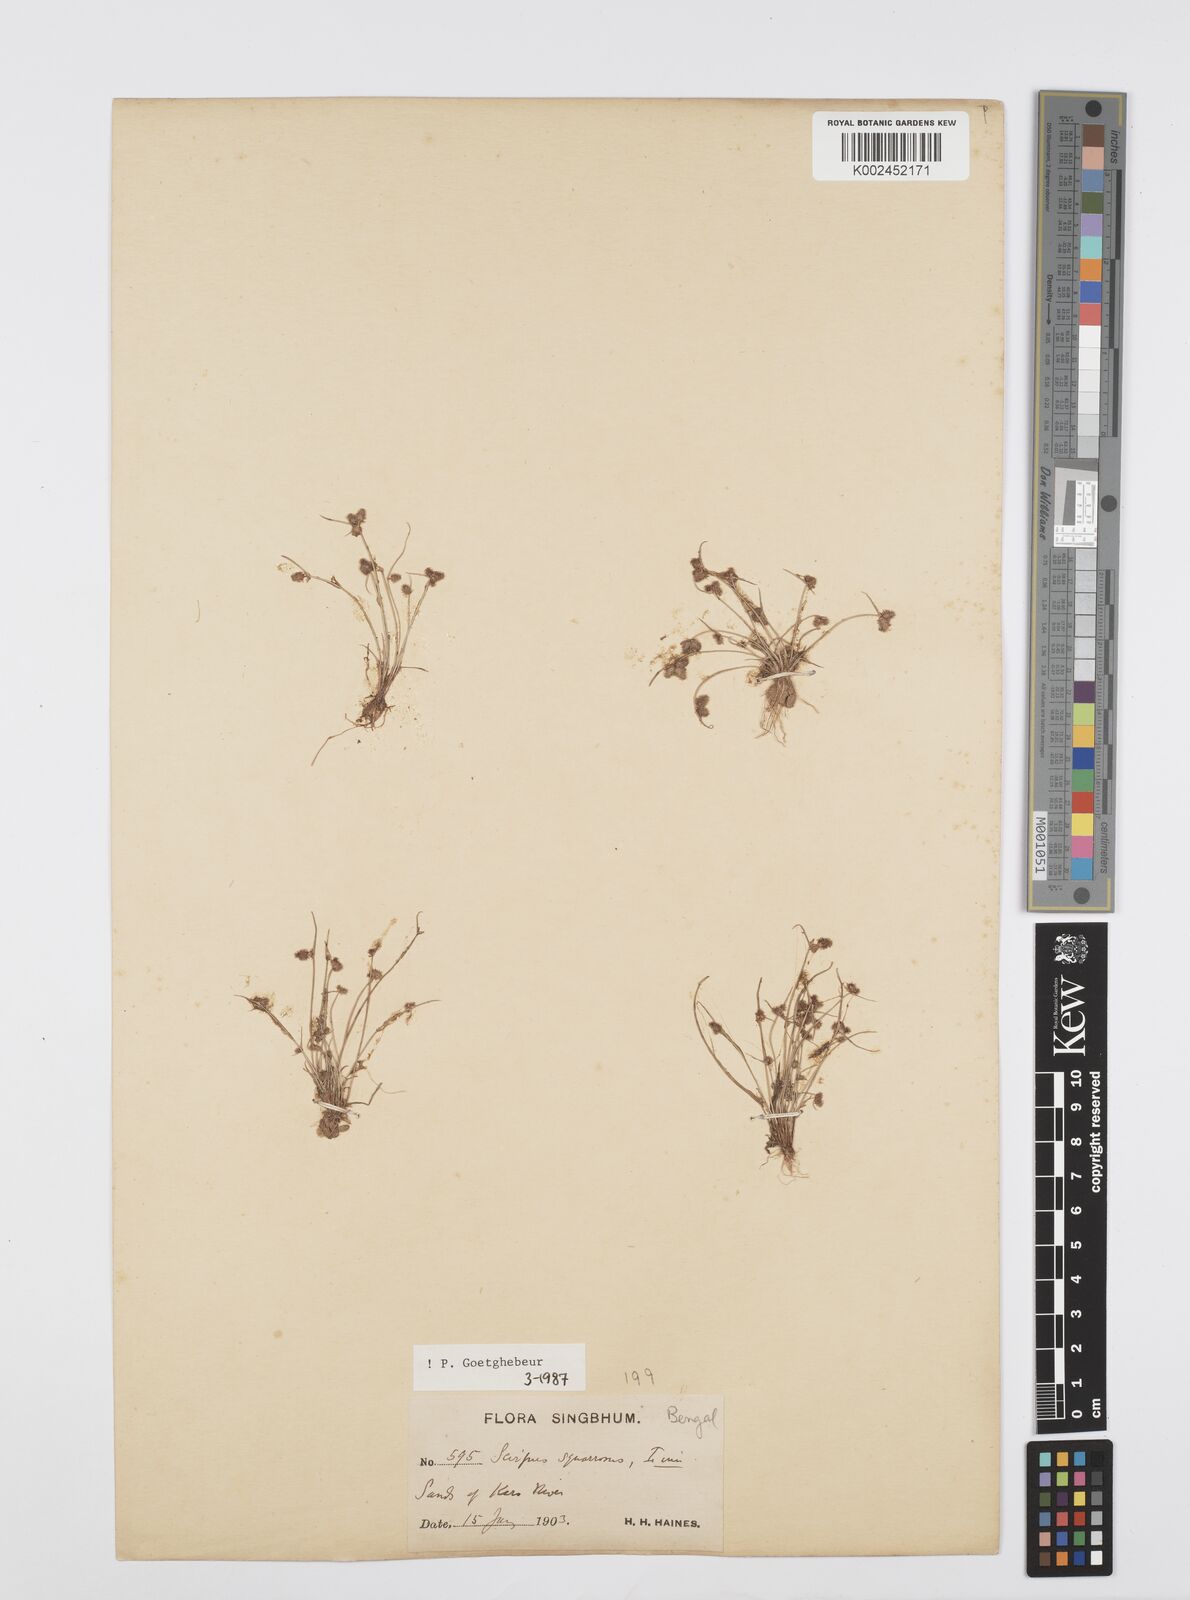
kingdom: Plantae
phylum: Tracheophyta
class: Liliopsida
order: Poales
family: Cyperaceae
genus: Cyperus
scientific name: Cyperus squarrosus
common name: Awned cyperus
